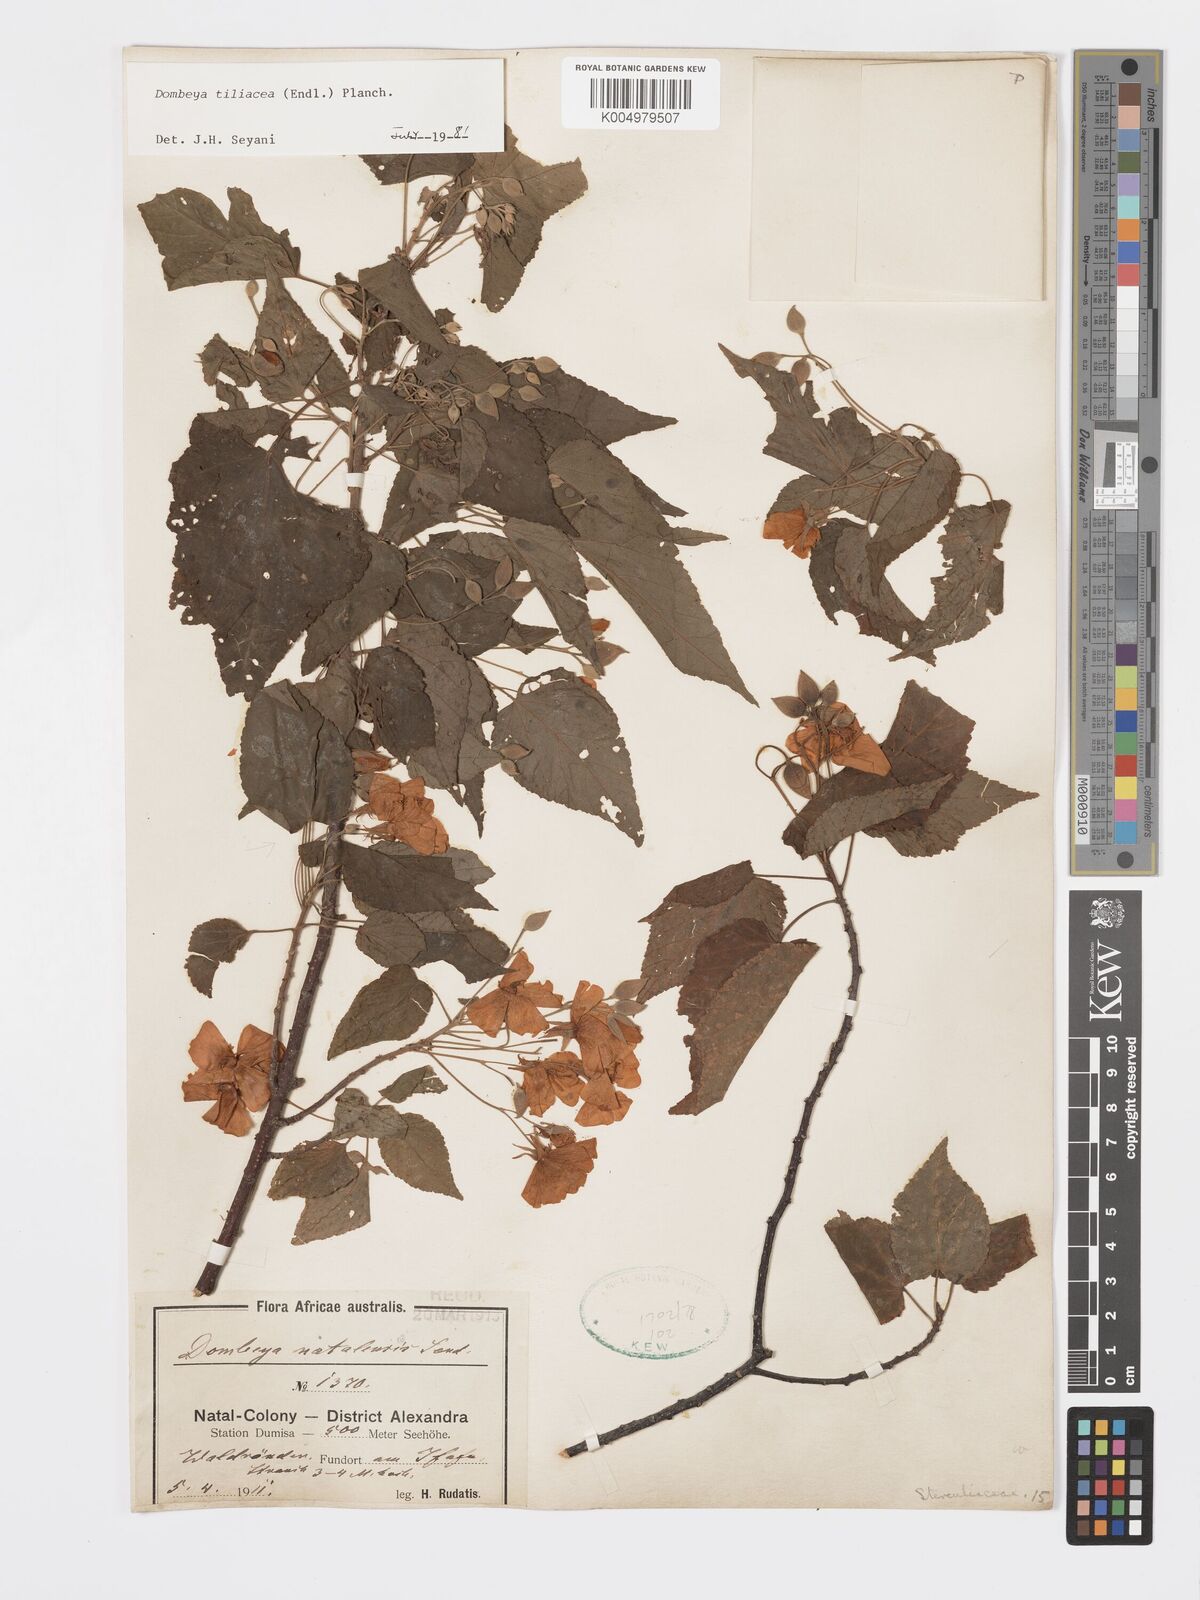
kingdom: Plantae
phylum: Tracheophyta
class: Magnoliopsida
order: Malvales
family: Malvaceae
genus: Dombeya
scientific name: Dombeya tiliacea
